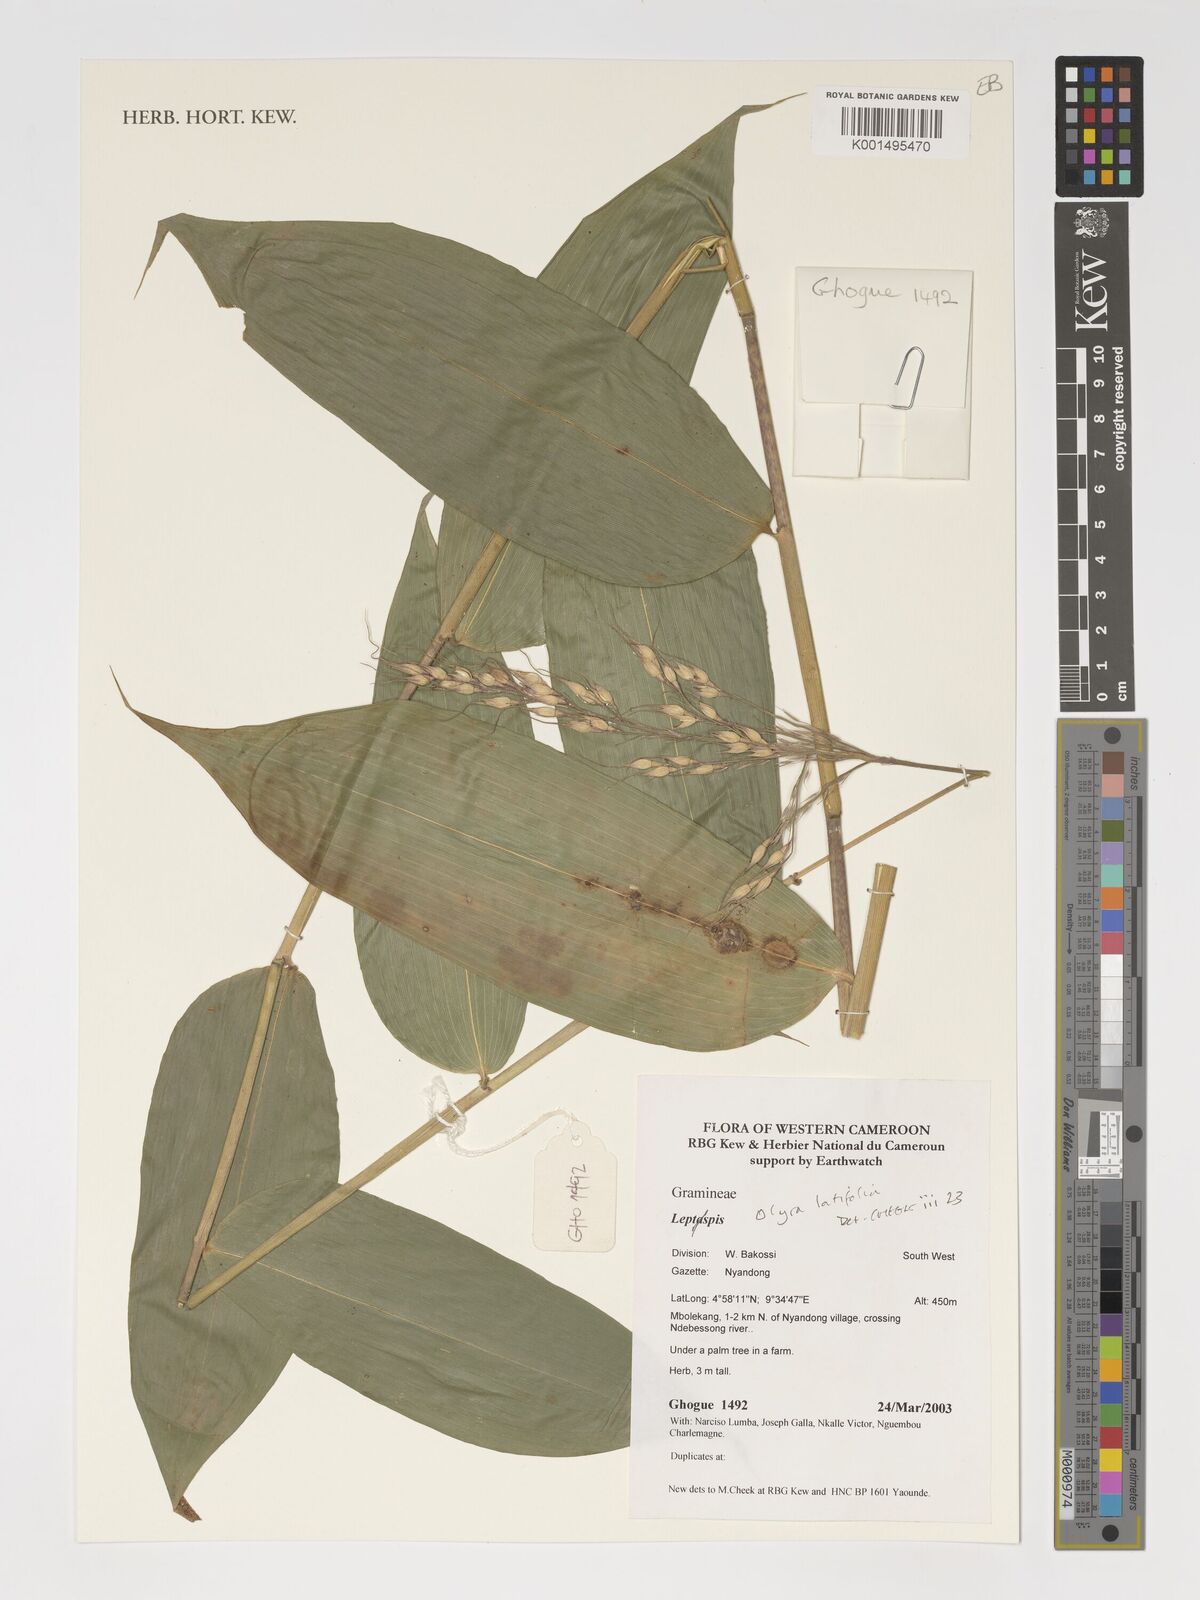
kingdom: Plantae
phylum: Tracheophyta
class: Liliopsida
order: Poales
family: Poaceae
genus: Olyra
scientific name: Olyra latifolia
